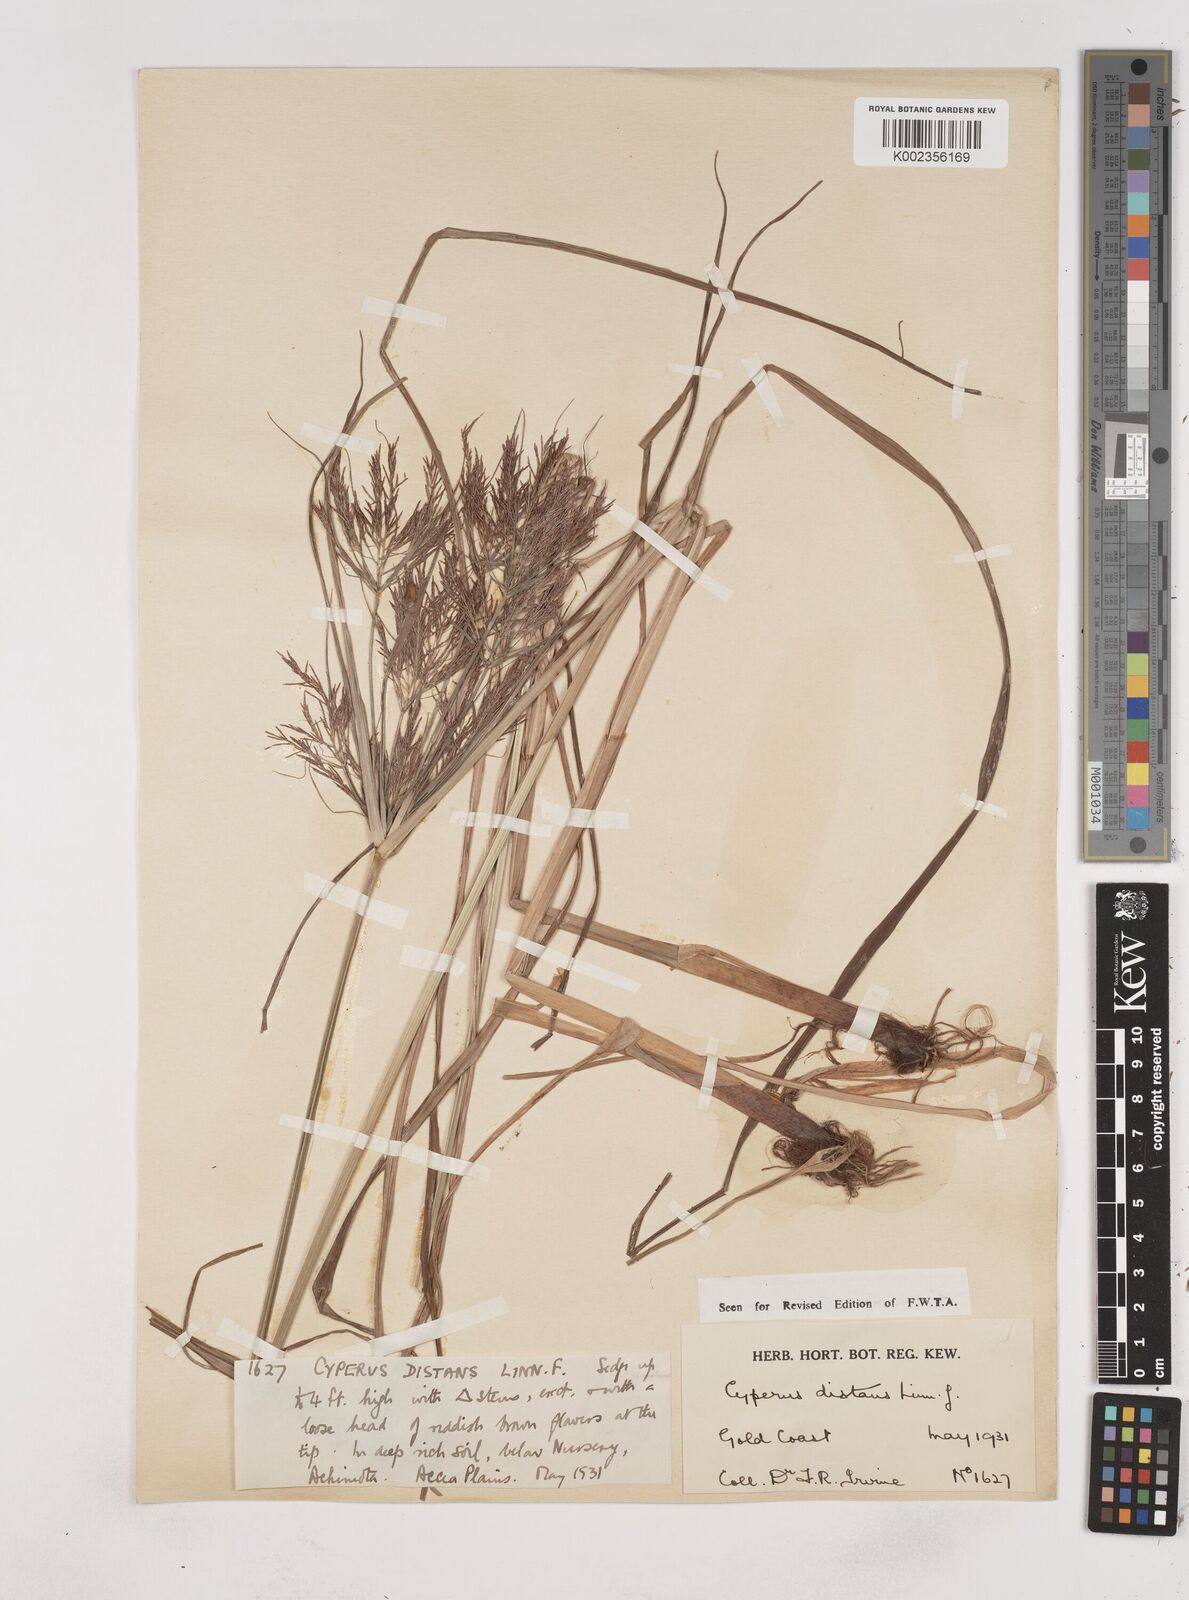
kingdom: Plantae
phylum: Tracheophyta
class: Liliopsida
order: Poales
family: Cyperaceae
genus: Cyperus
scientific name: Cyperus distans
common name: Slender cyperus
